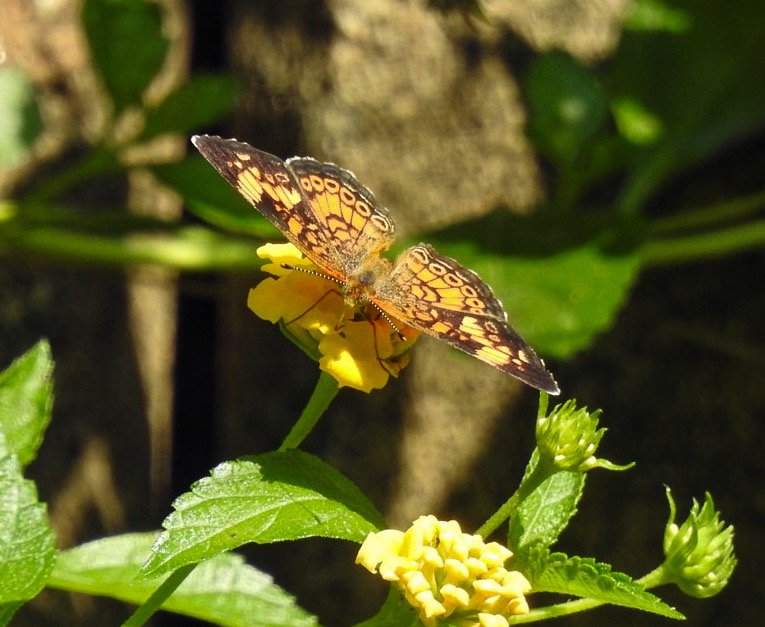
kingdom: Animalia
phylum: Arthropoda
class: Insecta
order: Lepidoptera
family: Nymphalidae
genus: Phyciodes
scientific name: Phyciodes tharos
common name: Pearl Crescent
